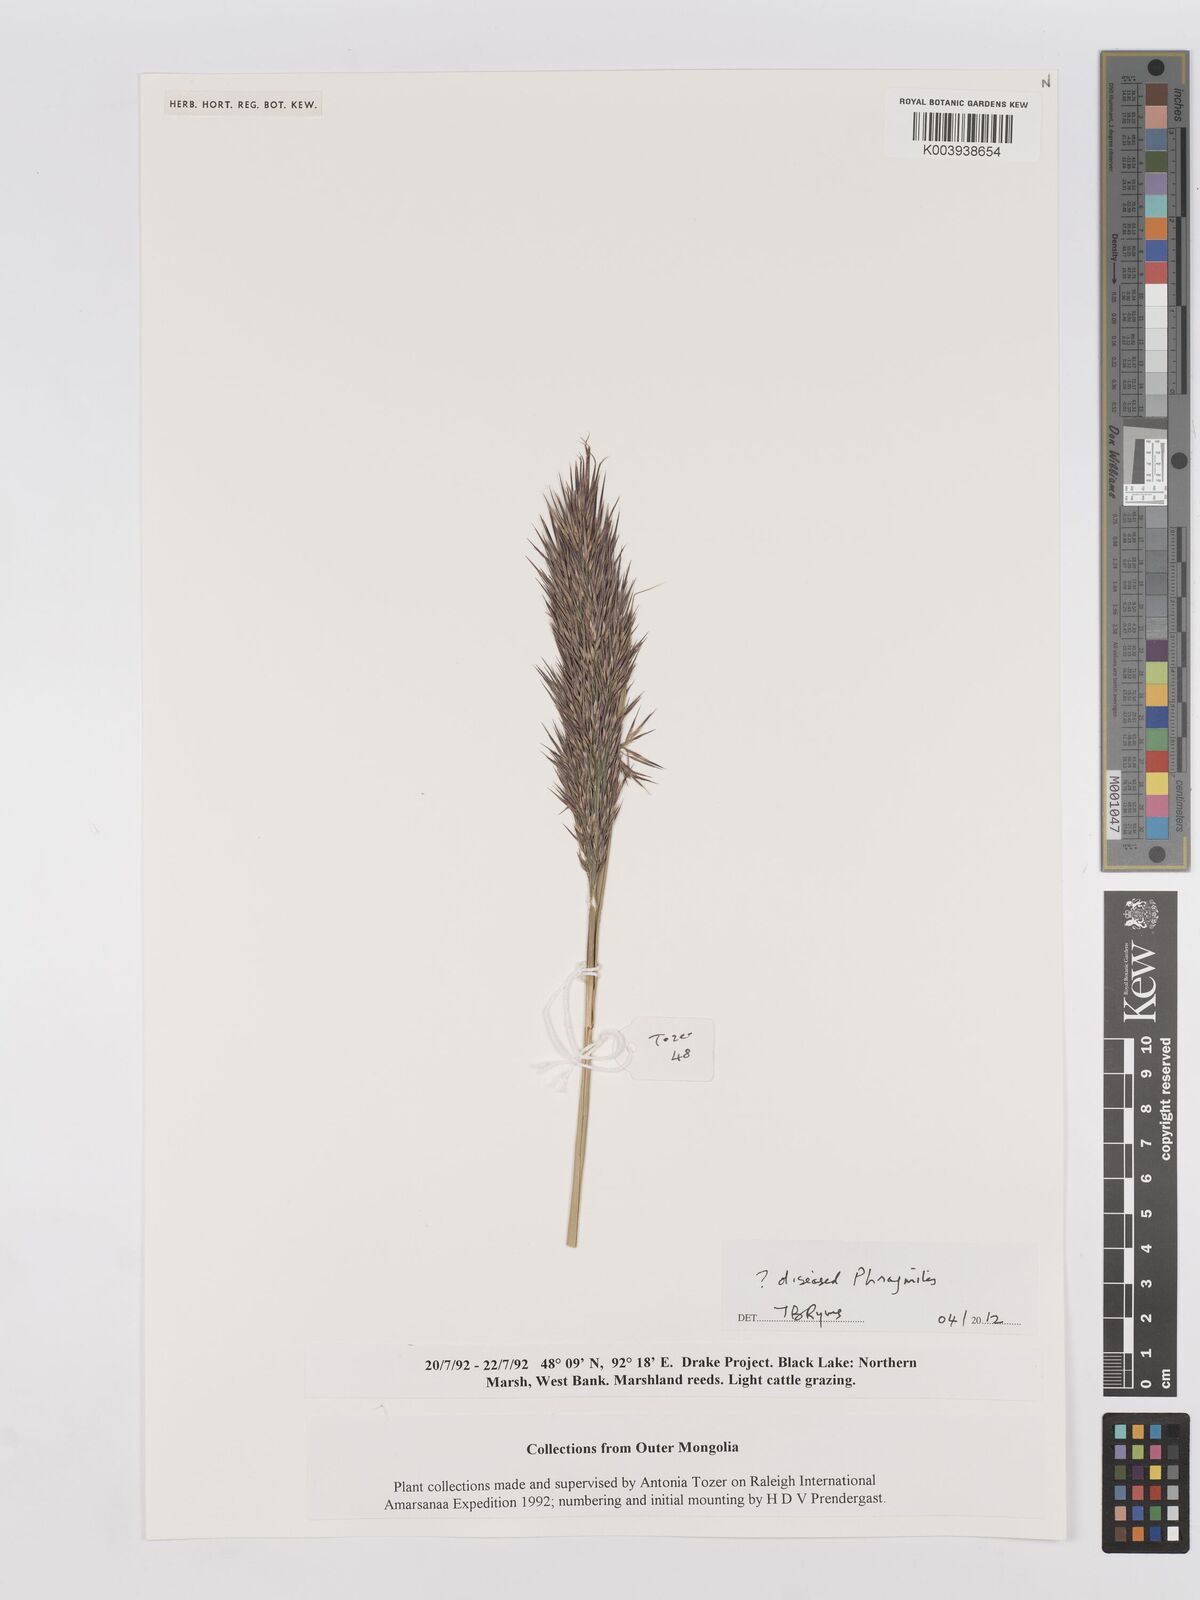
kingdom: Plantae
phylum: Tracheophyta
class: Liliopsida
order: Poales
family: Poaceae
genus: Phragmites
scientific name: Phragmites australis
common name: Common reed
